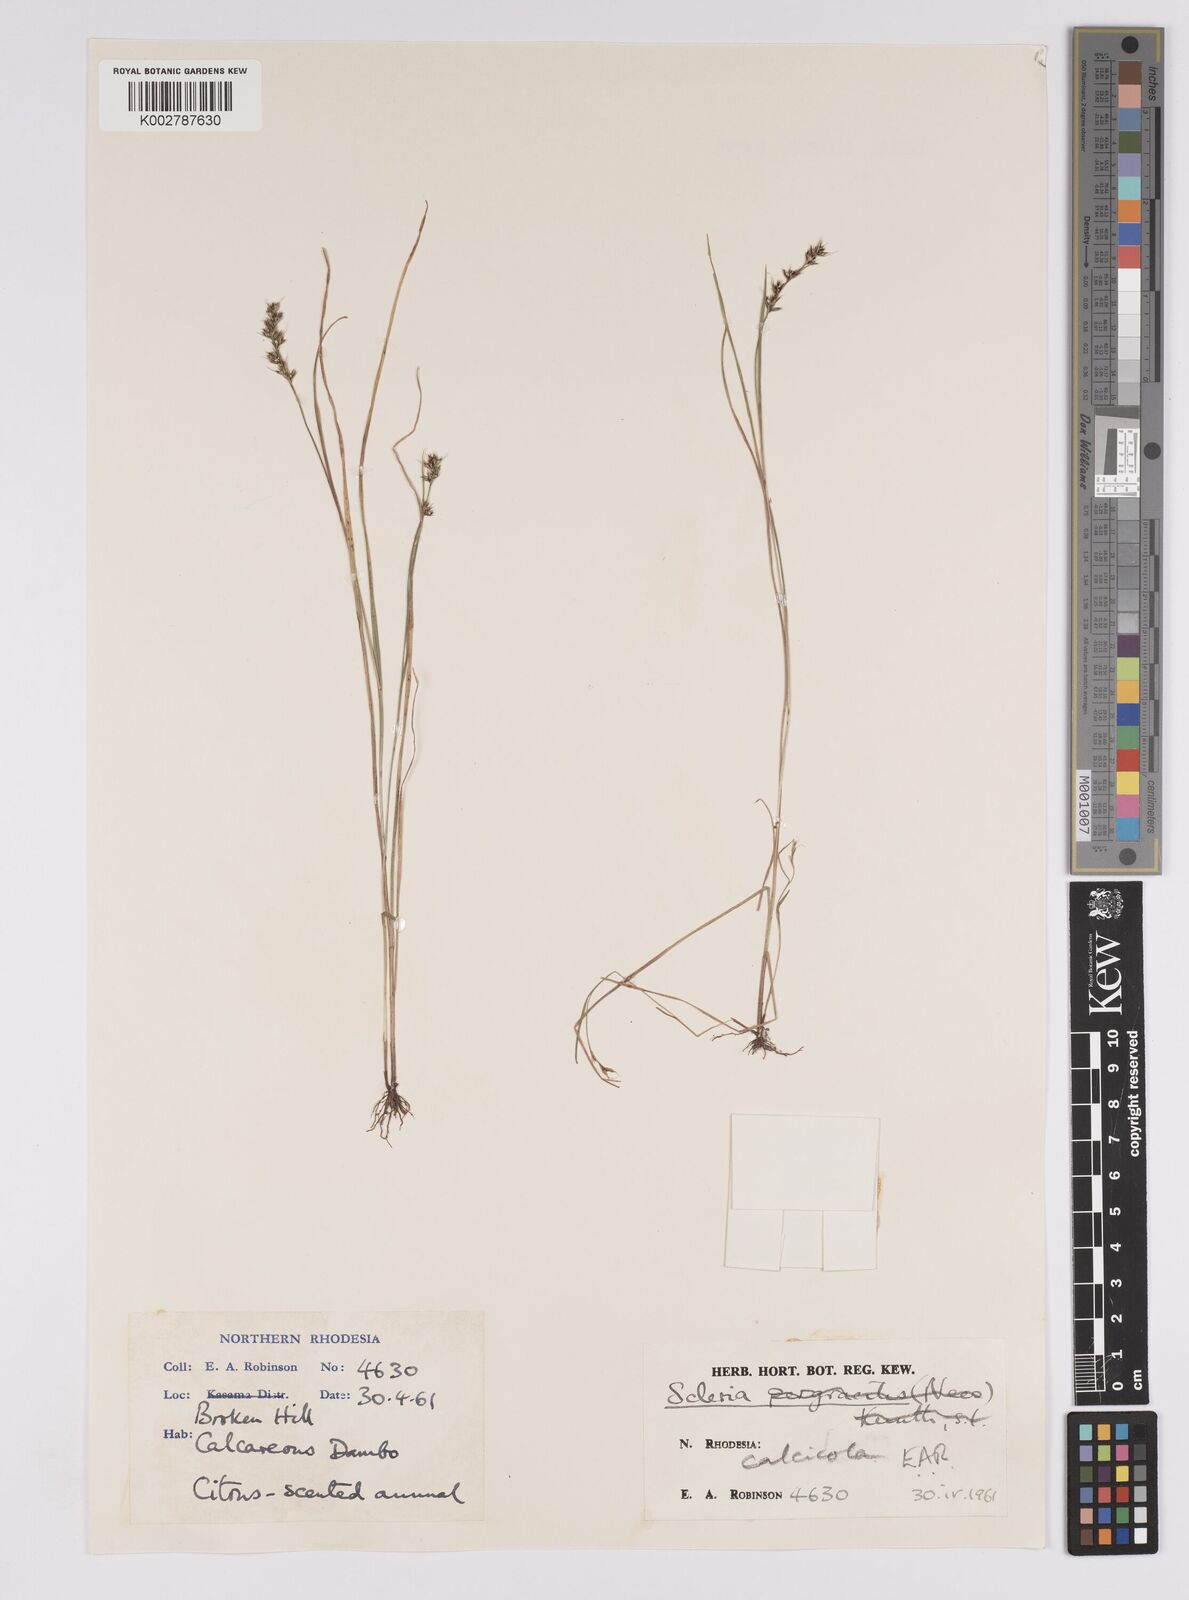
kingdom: Plantae
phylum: Tracheophyta
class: Liliopsida
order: Poales
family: Cyperaceae
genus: Scleria
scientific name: Scleria calcicola
